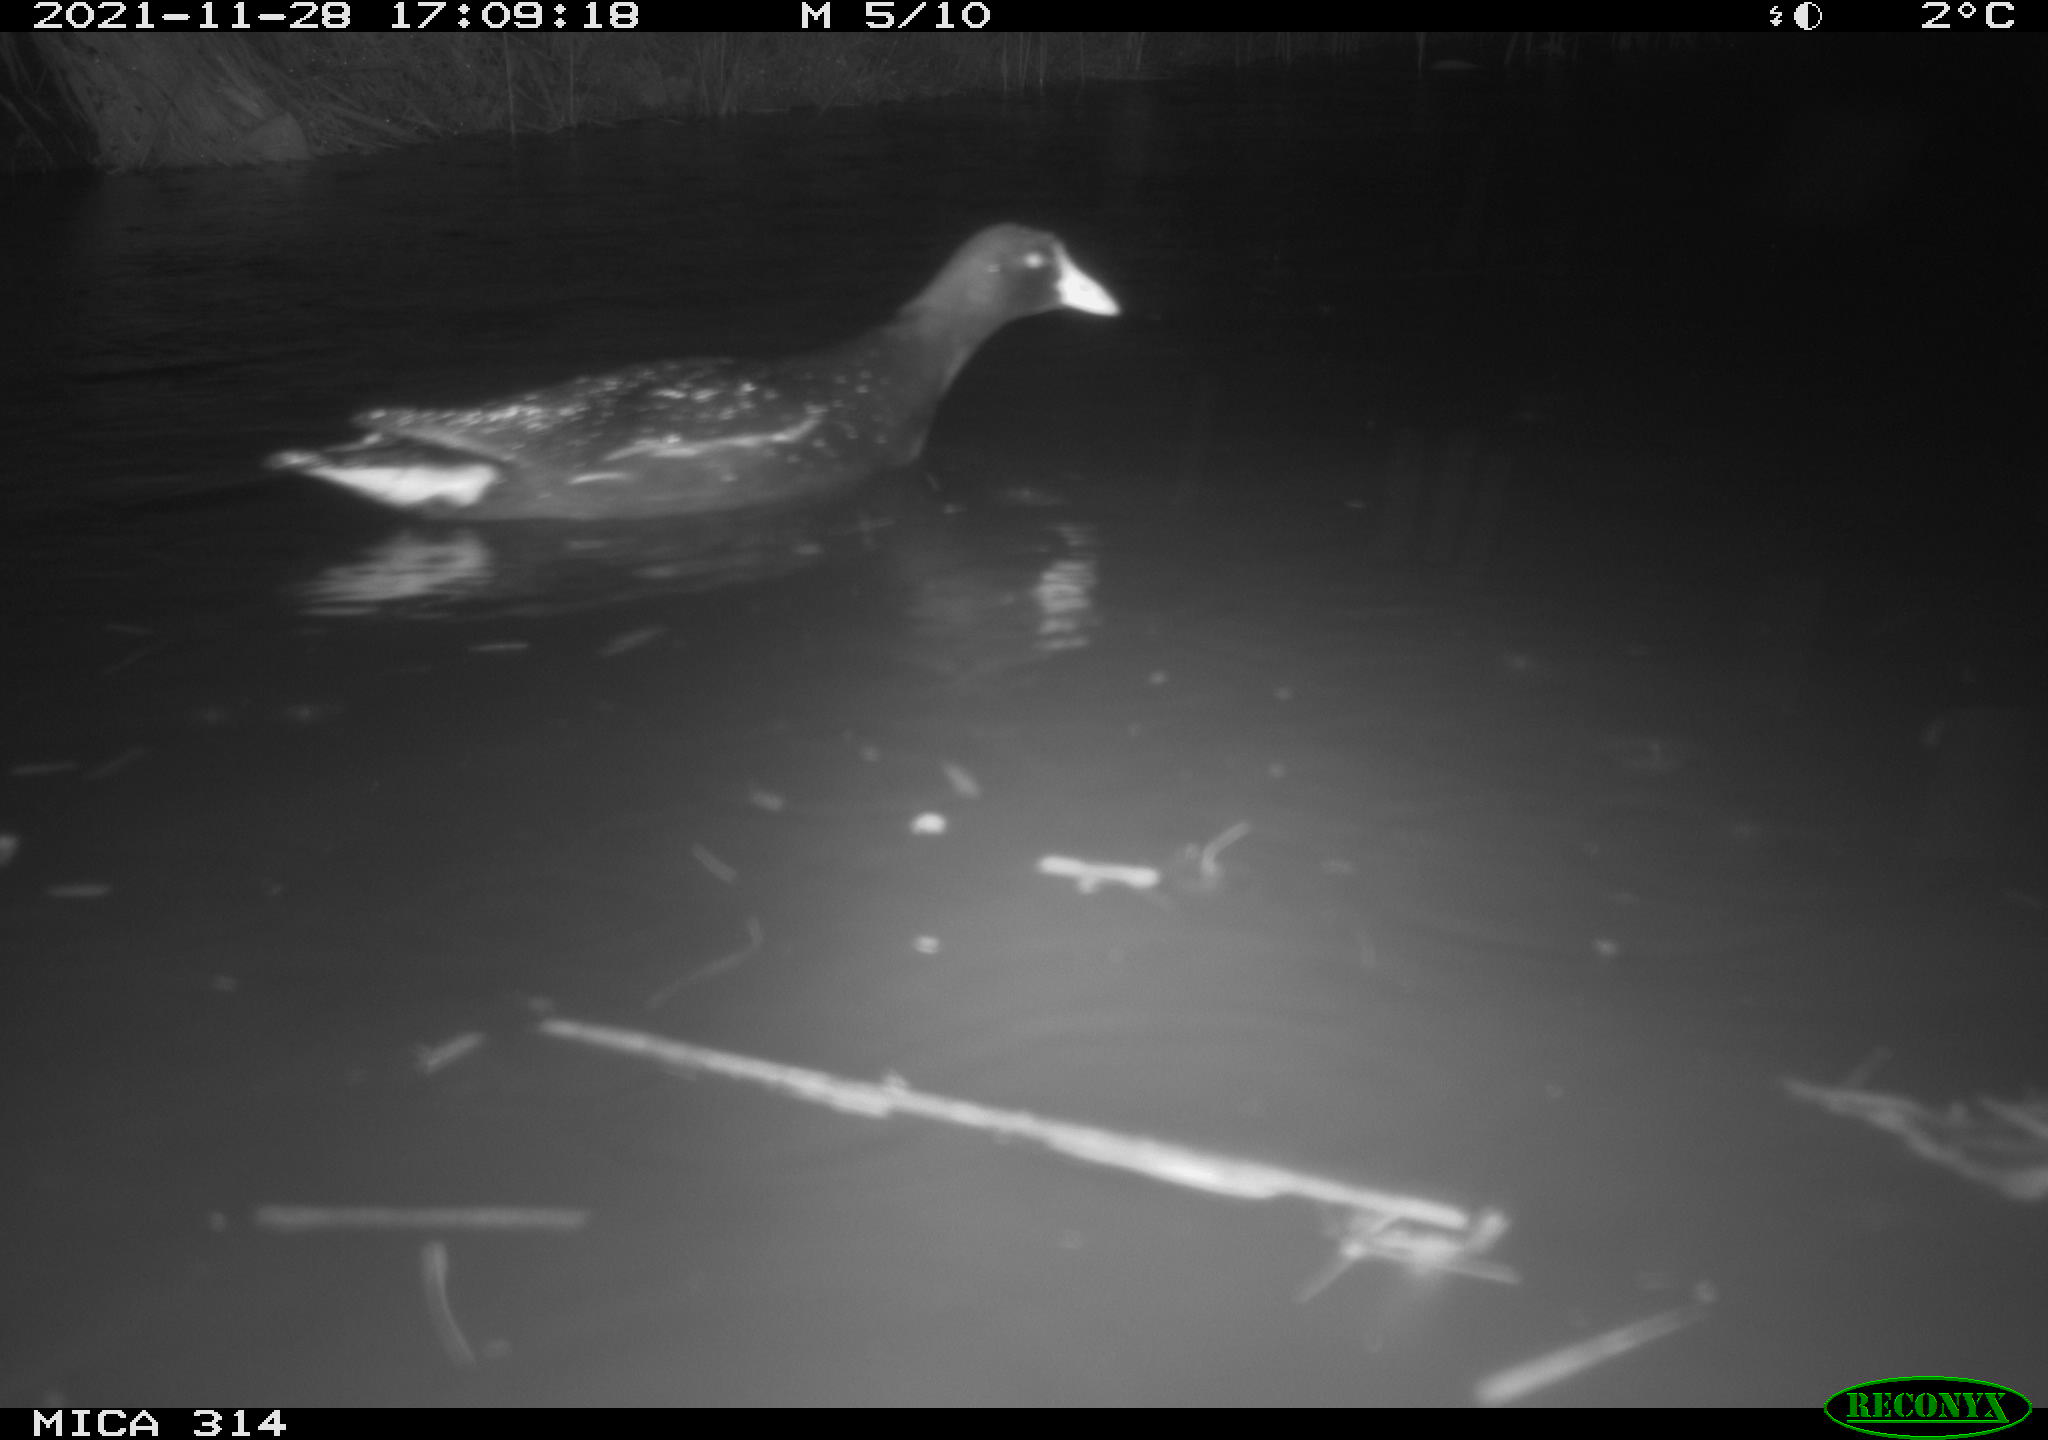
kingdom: Animalia
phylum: Chordata
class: Aves
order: Gruiformes
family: Rallidae
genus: Gallinula
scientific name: Gallinula chloropus
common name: Common moorhen
